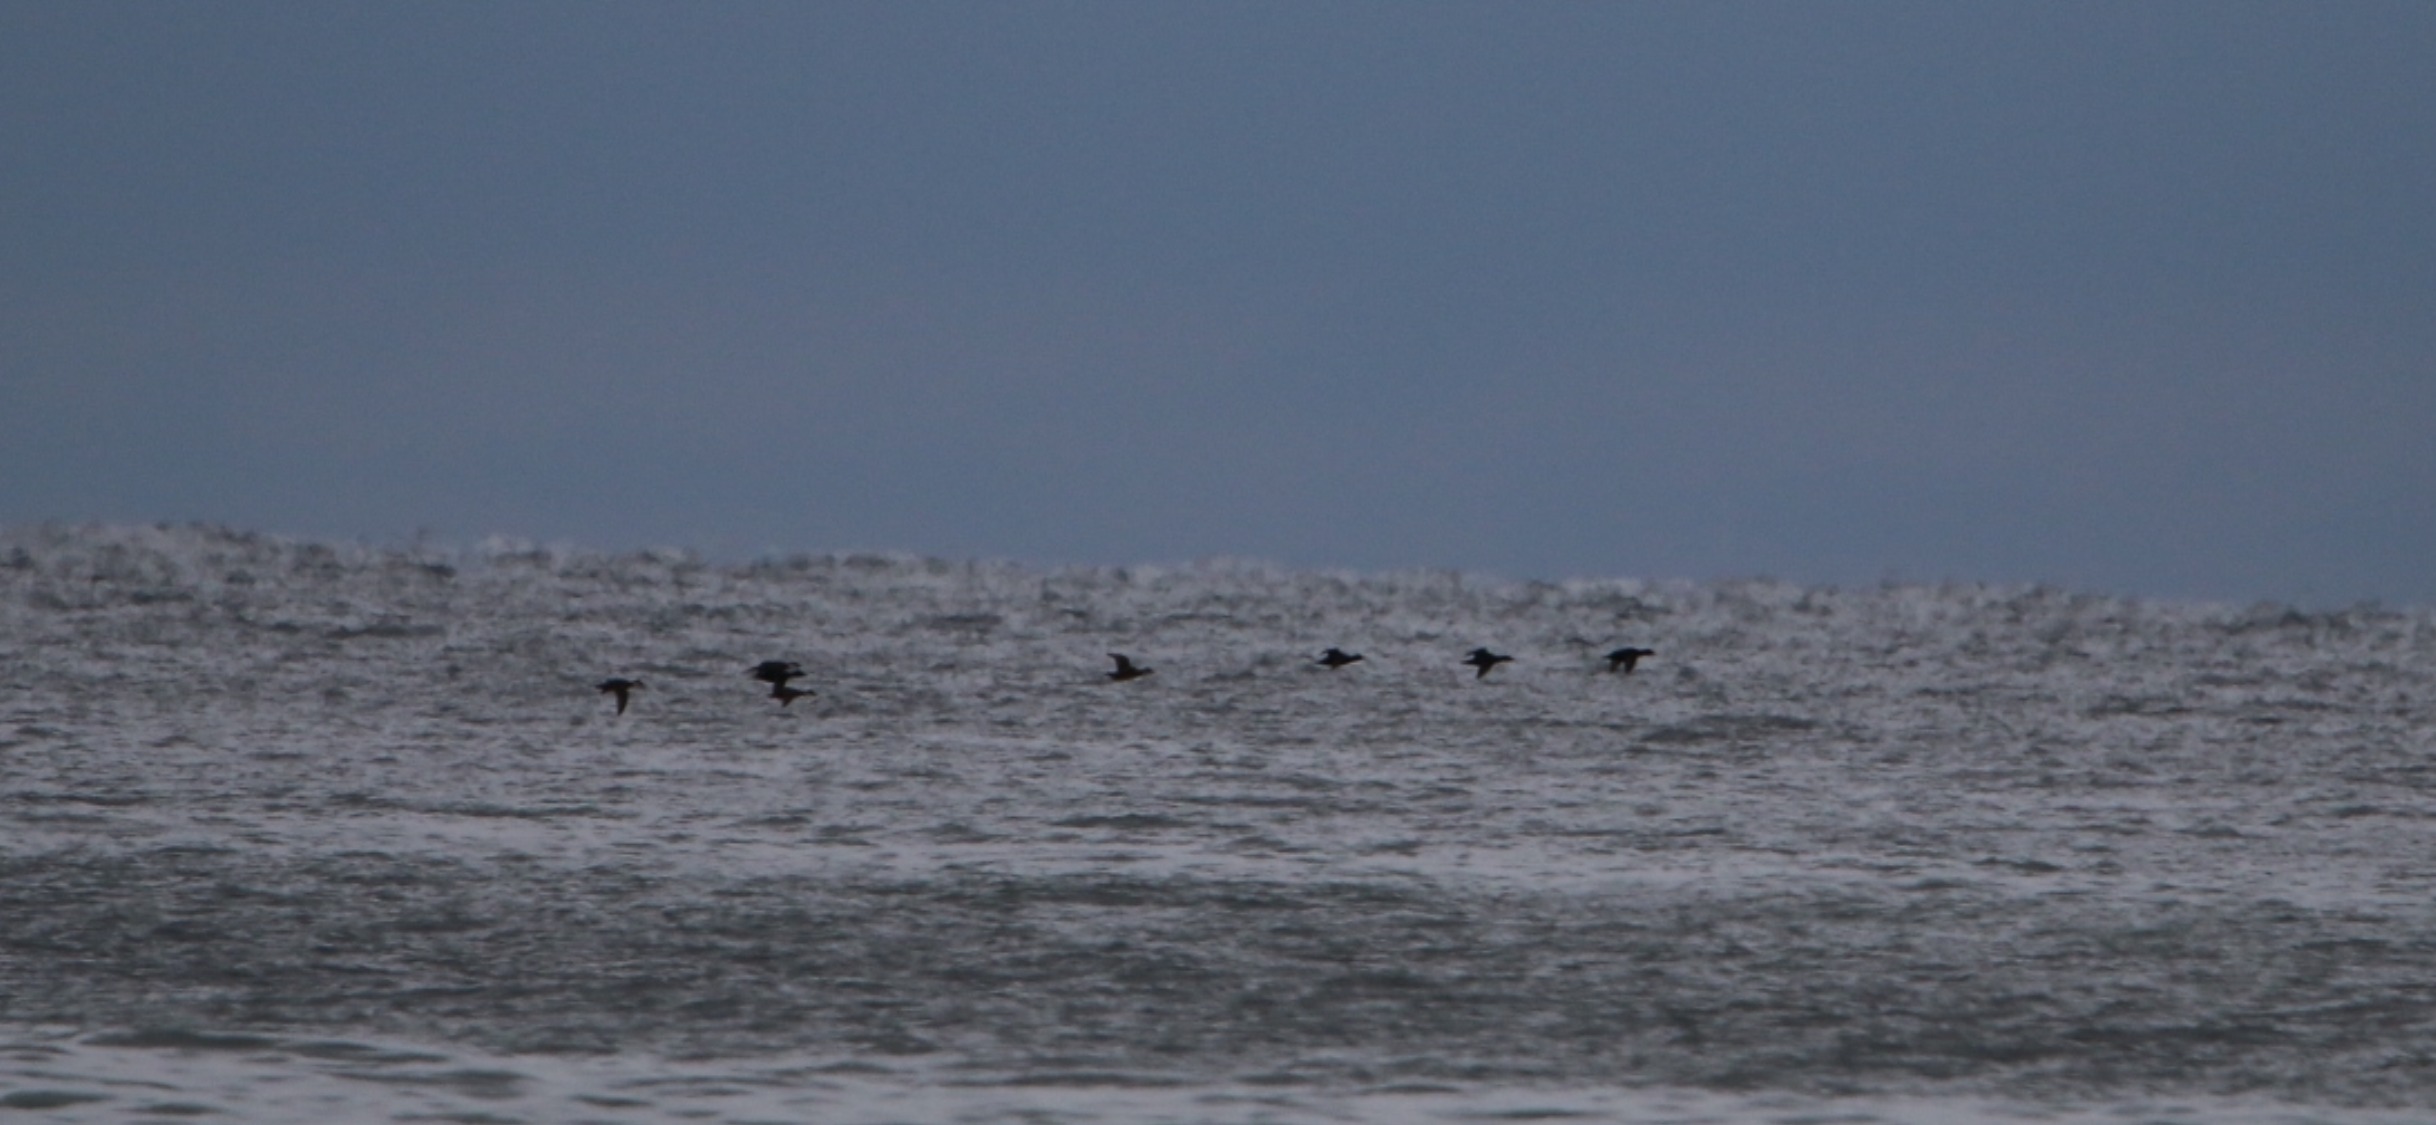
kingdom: Animalia
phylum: Chordata
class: Aves
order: Anseriformes
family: Anatidae
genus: Melanitta
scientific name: Melanitta nigra
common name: Sortand
